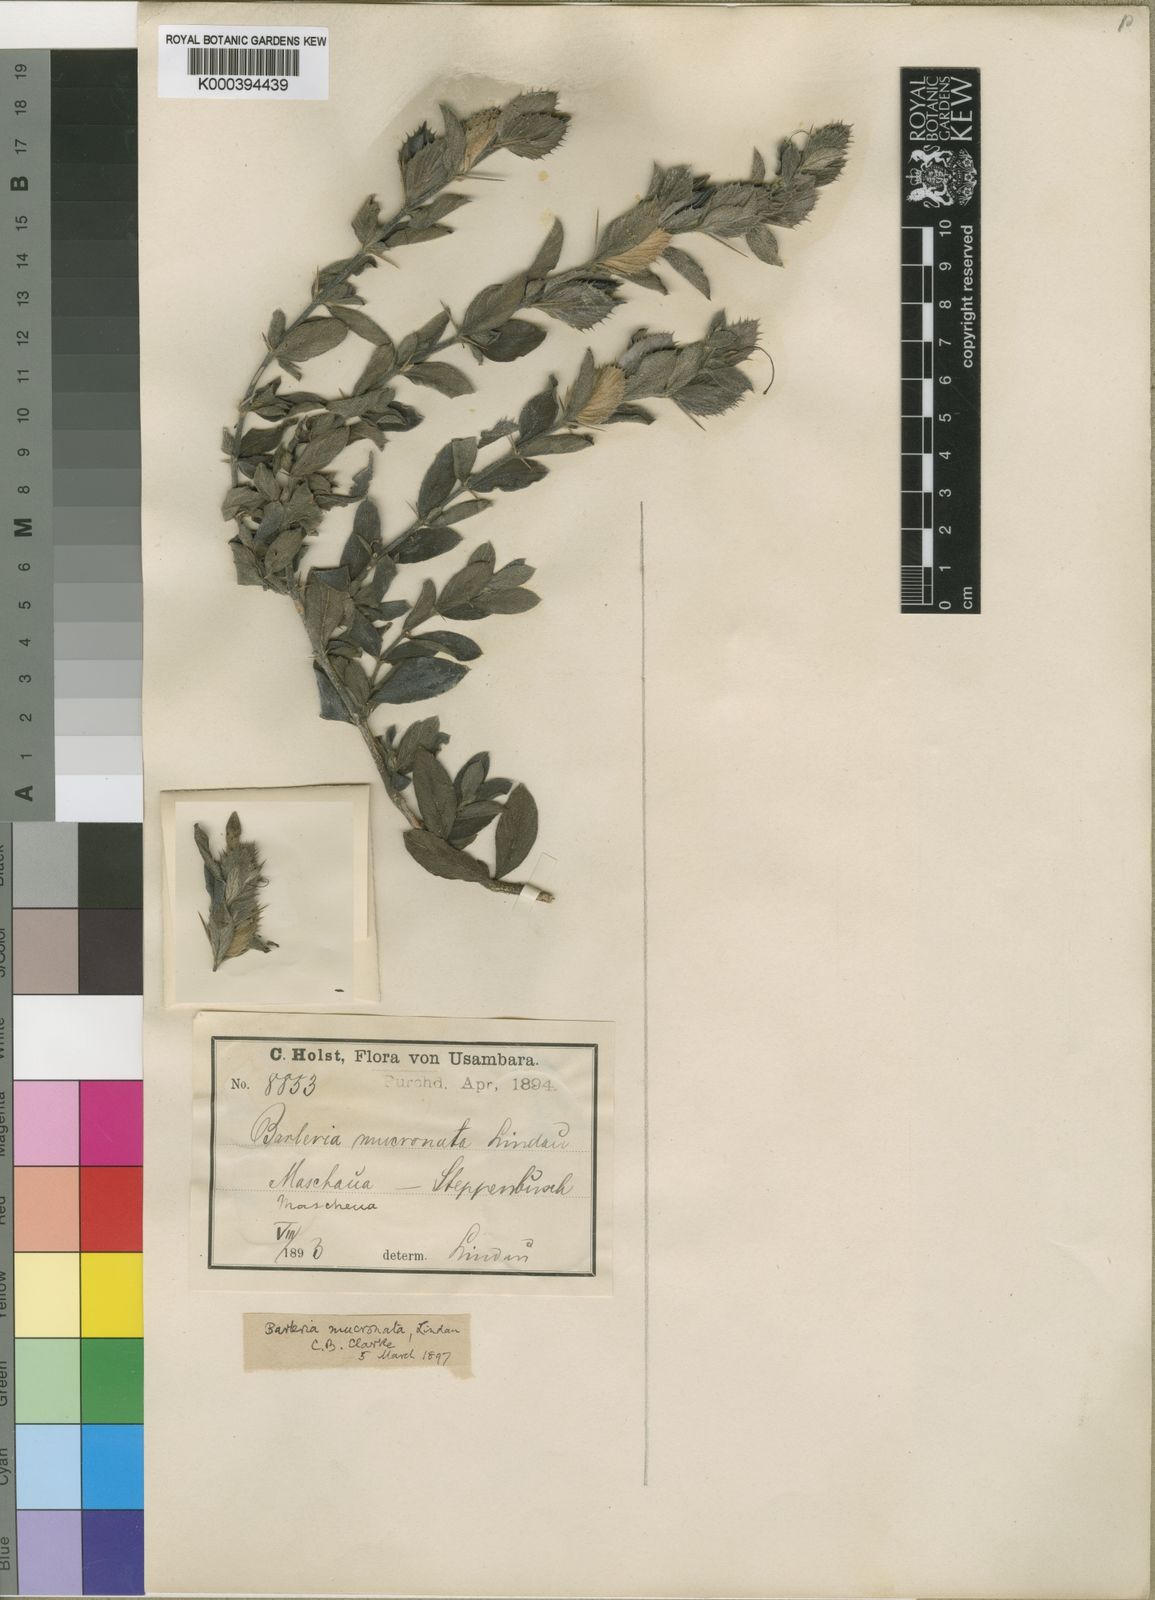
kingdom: Plantae
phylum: Tracheophyta
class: Magnoliopsida
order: Lamiales
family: Acanthaceae
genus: Barleria
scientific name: Barleria grandicalyx
